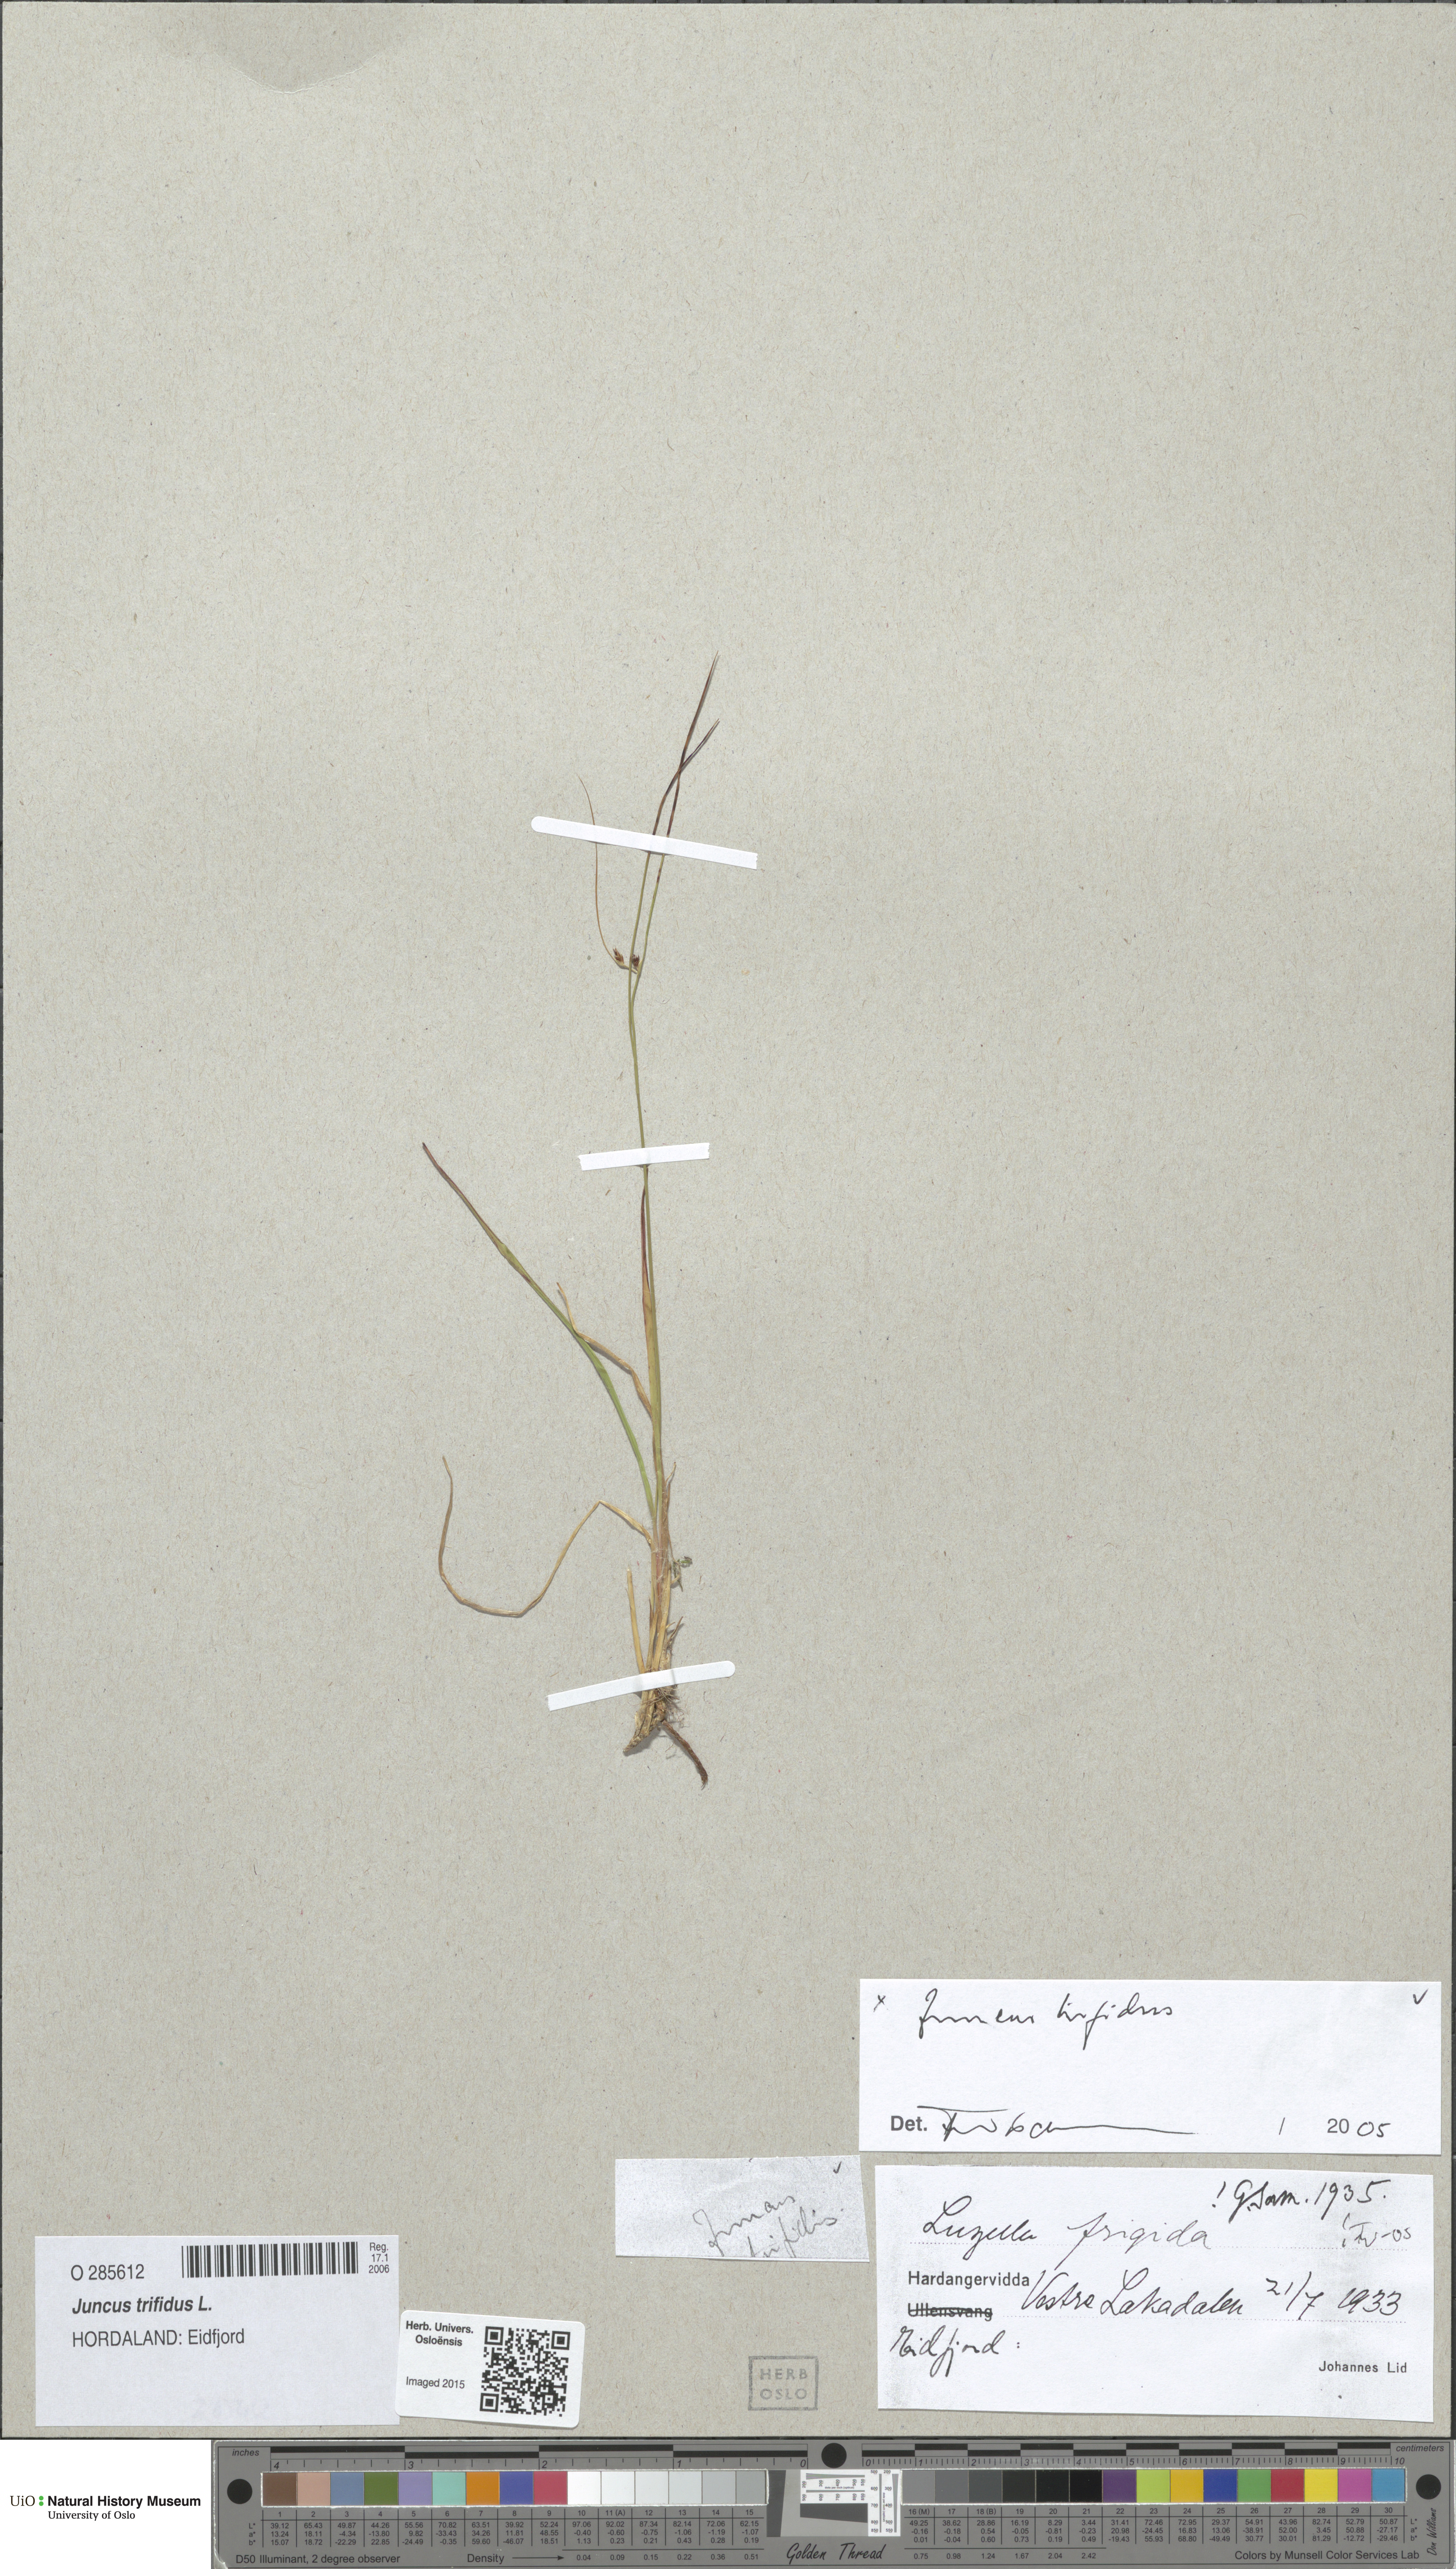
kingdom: Plantae
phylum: Tracheophyta
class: Liliopsida
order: Poales
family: Juncaceae
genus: Oreojuncus
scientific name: Oreojuncus trifidus
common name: Highland rush
